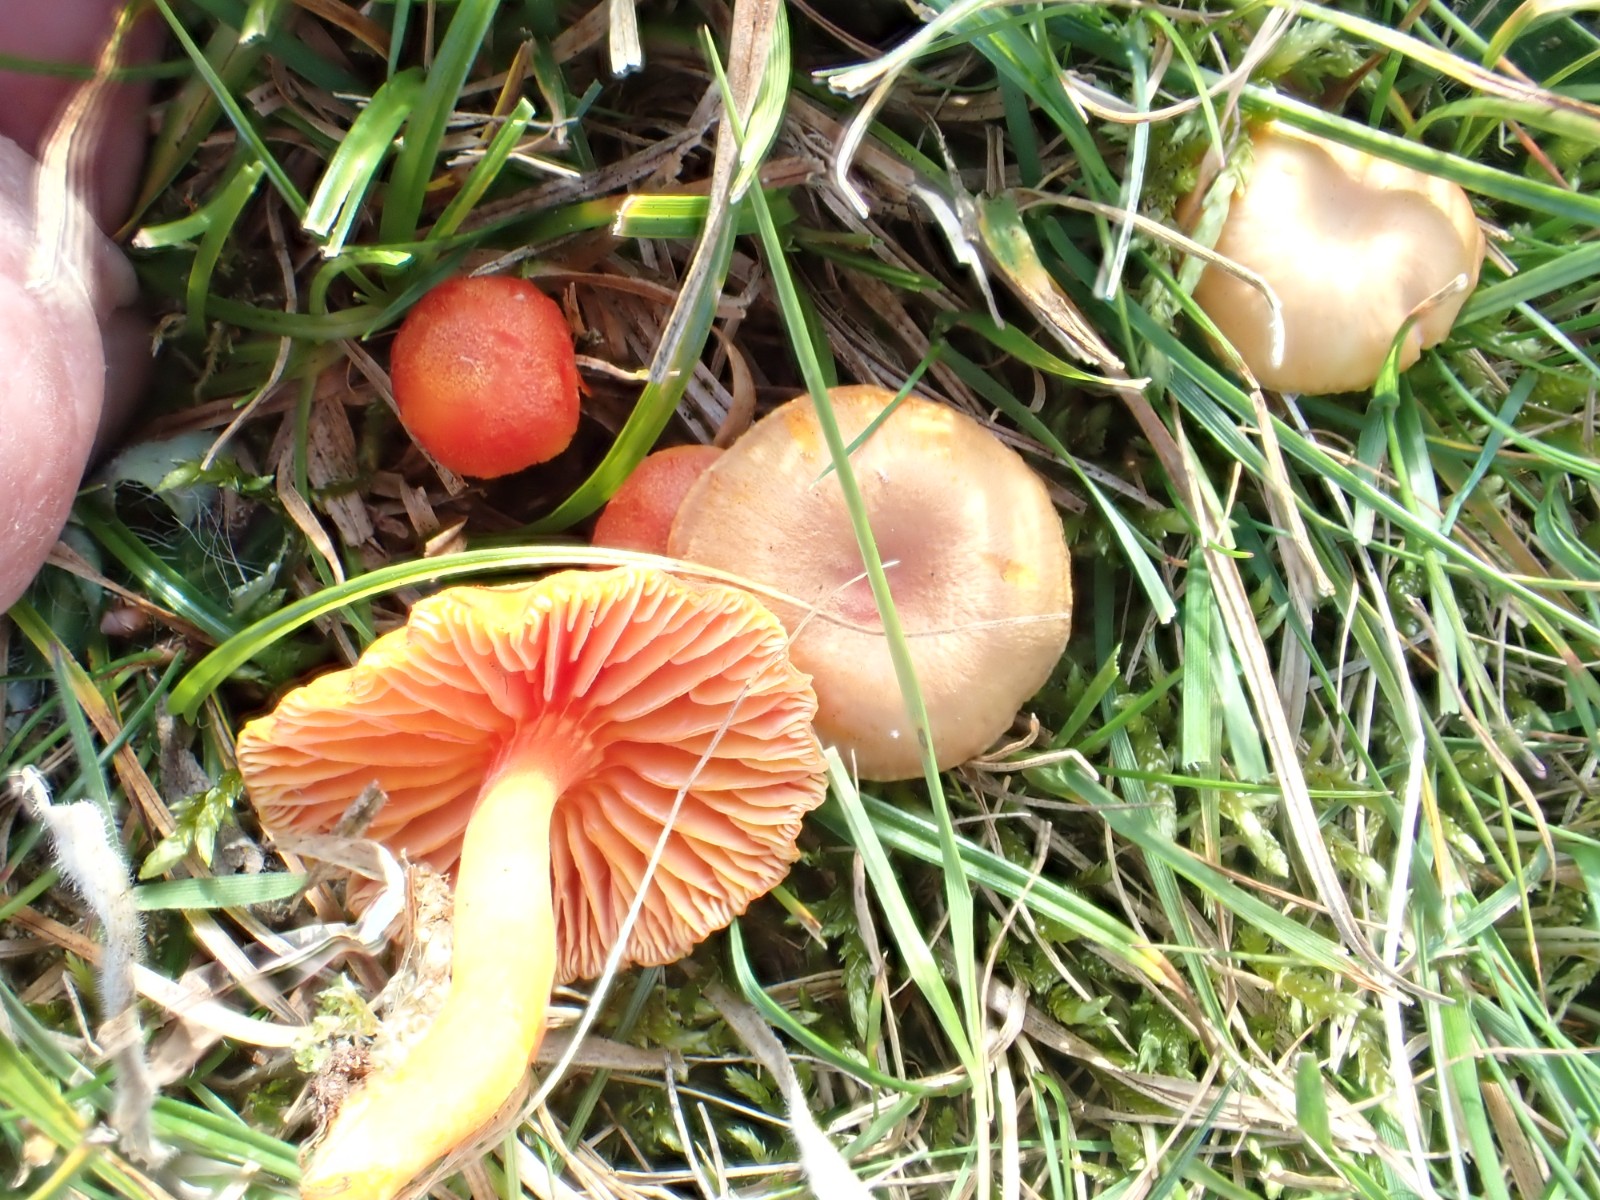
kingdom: Fungi
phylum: Basidiomycota
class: Agaricomycetes
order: Agaricales
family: Hygrophoraceae
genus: Hygrocybe
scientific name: Hygrocybe reidii
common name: honning-vokshat
